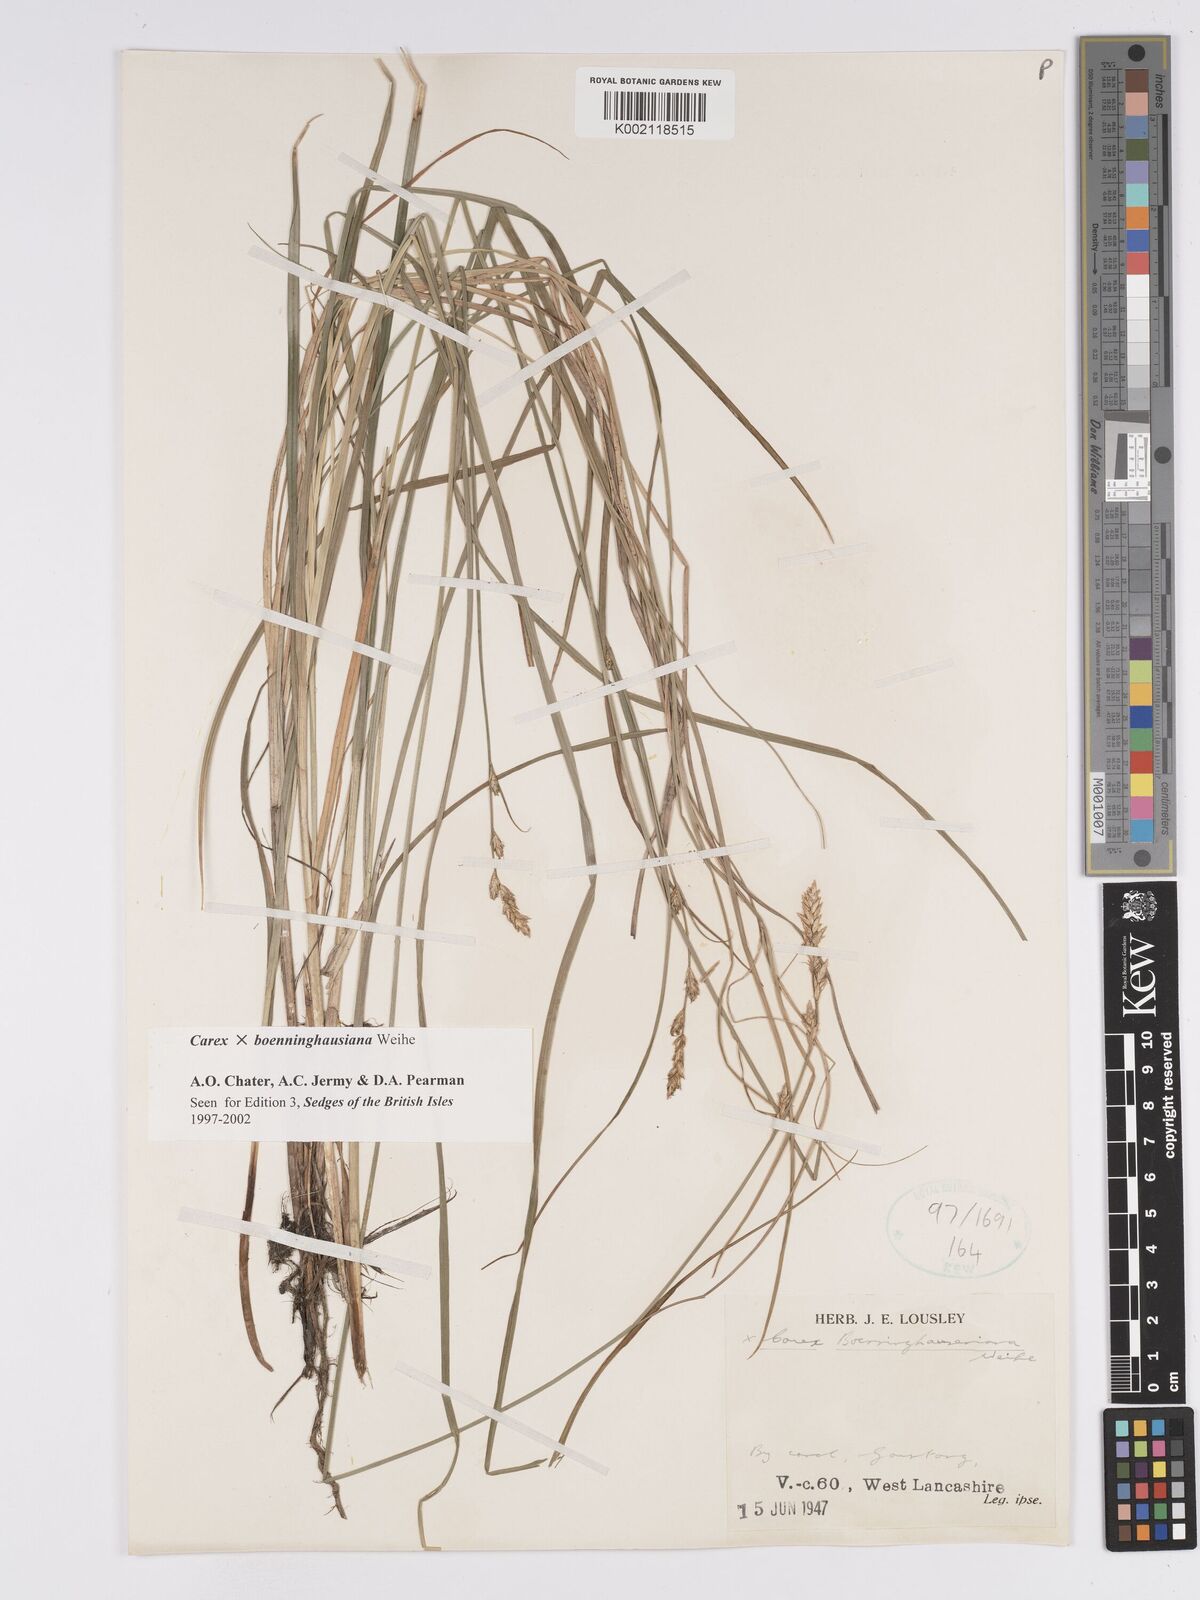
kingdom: Plantae
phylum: Tracheophyta
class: Liliopsida
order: Poales
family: Cyperaceae
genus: Carex
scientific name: Carex boenninghausiana
